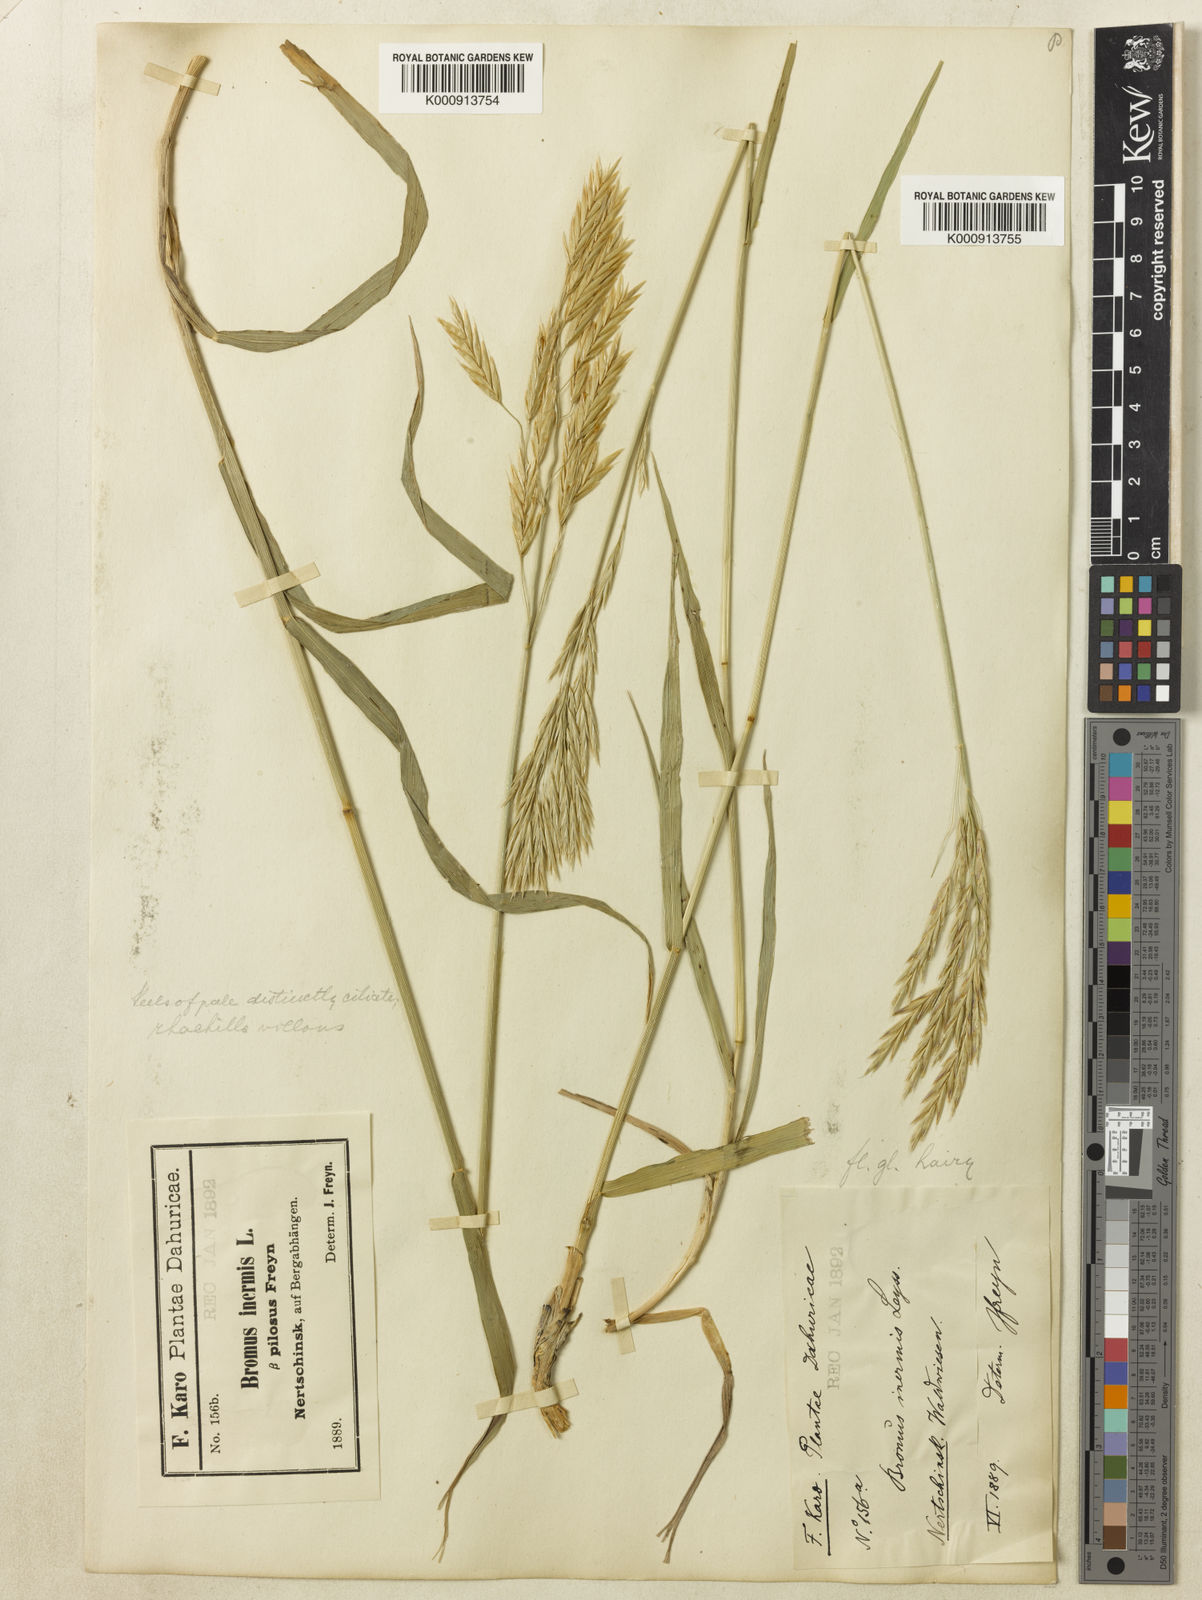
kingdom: Plantae
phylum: Tracheophyta
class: Liliopsida
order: Poales
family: Poaceae
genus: Bromus
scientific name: Bromus ciliatus
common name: Fringe brome
